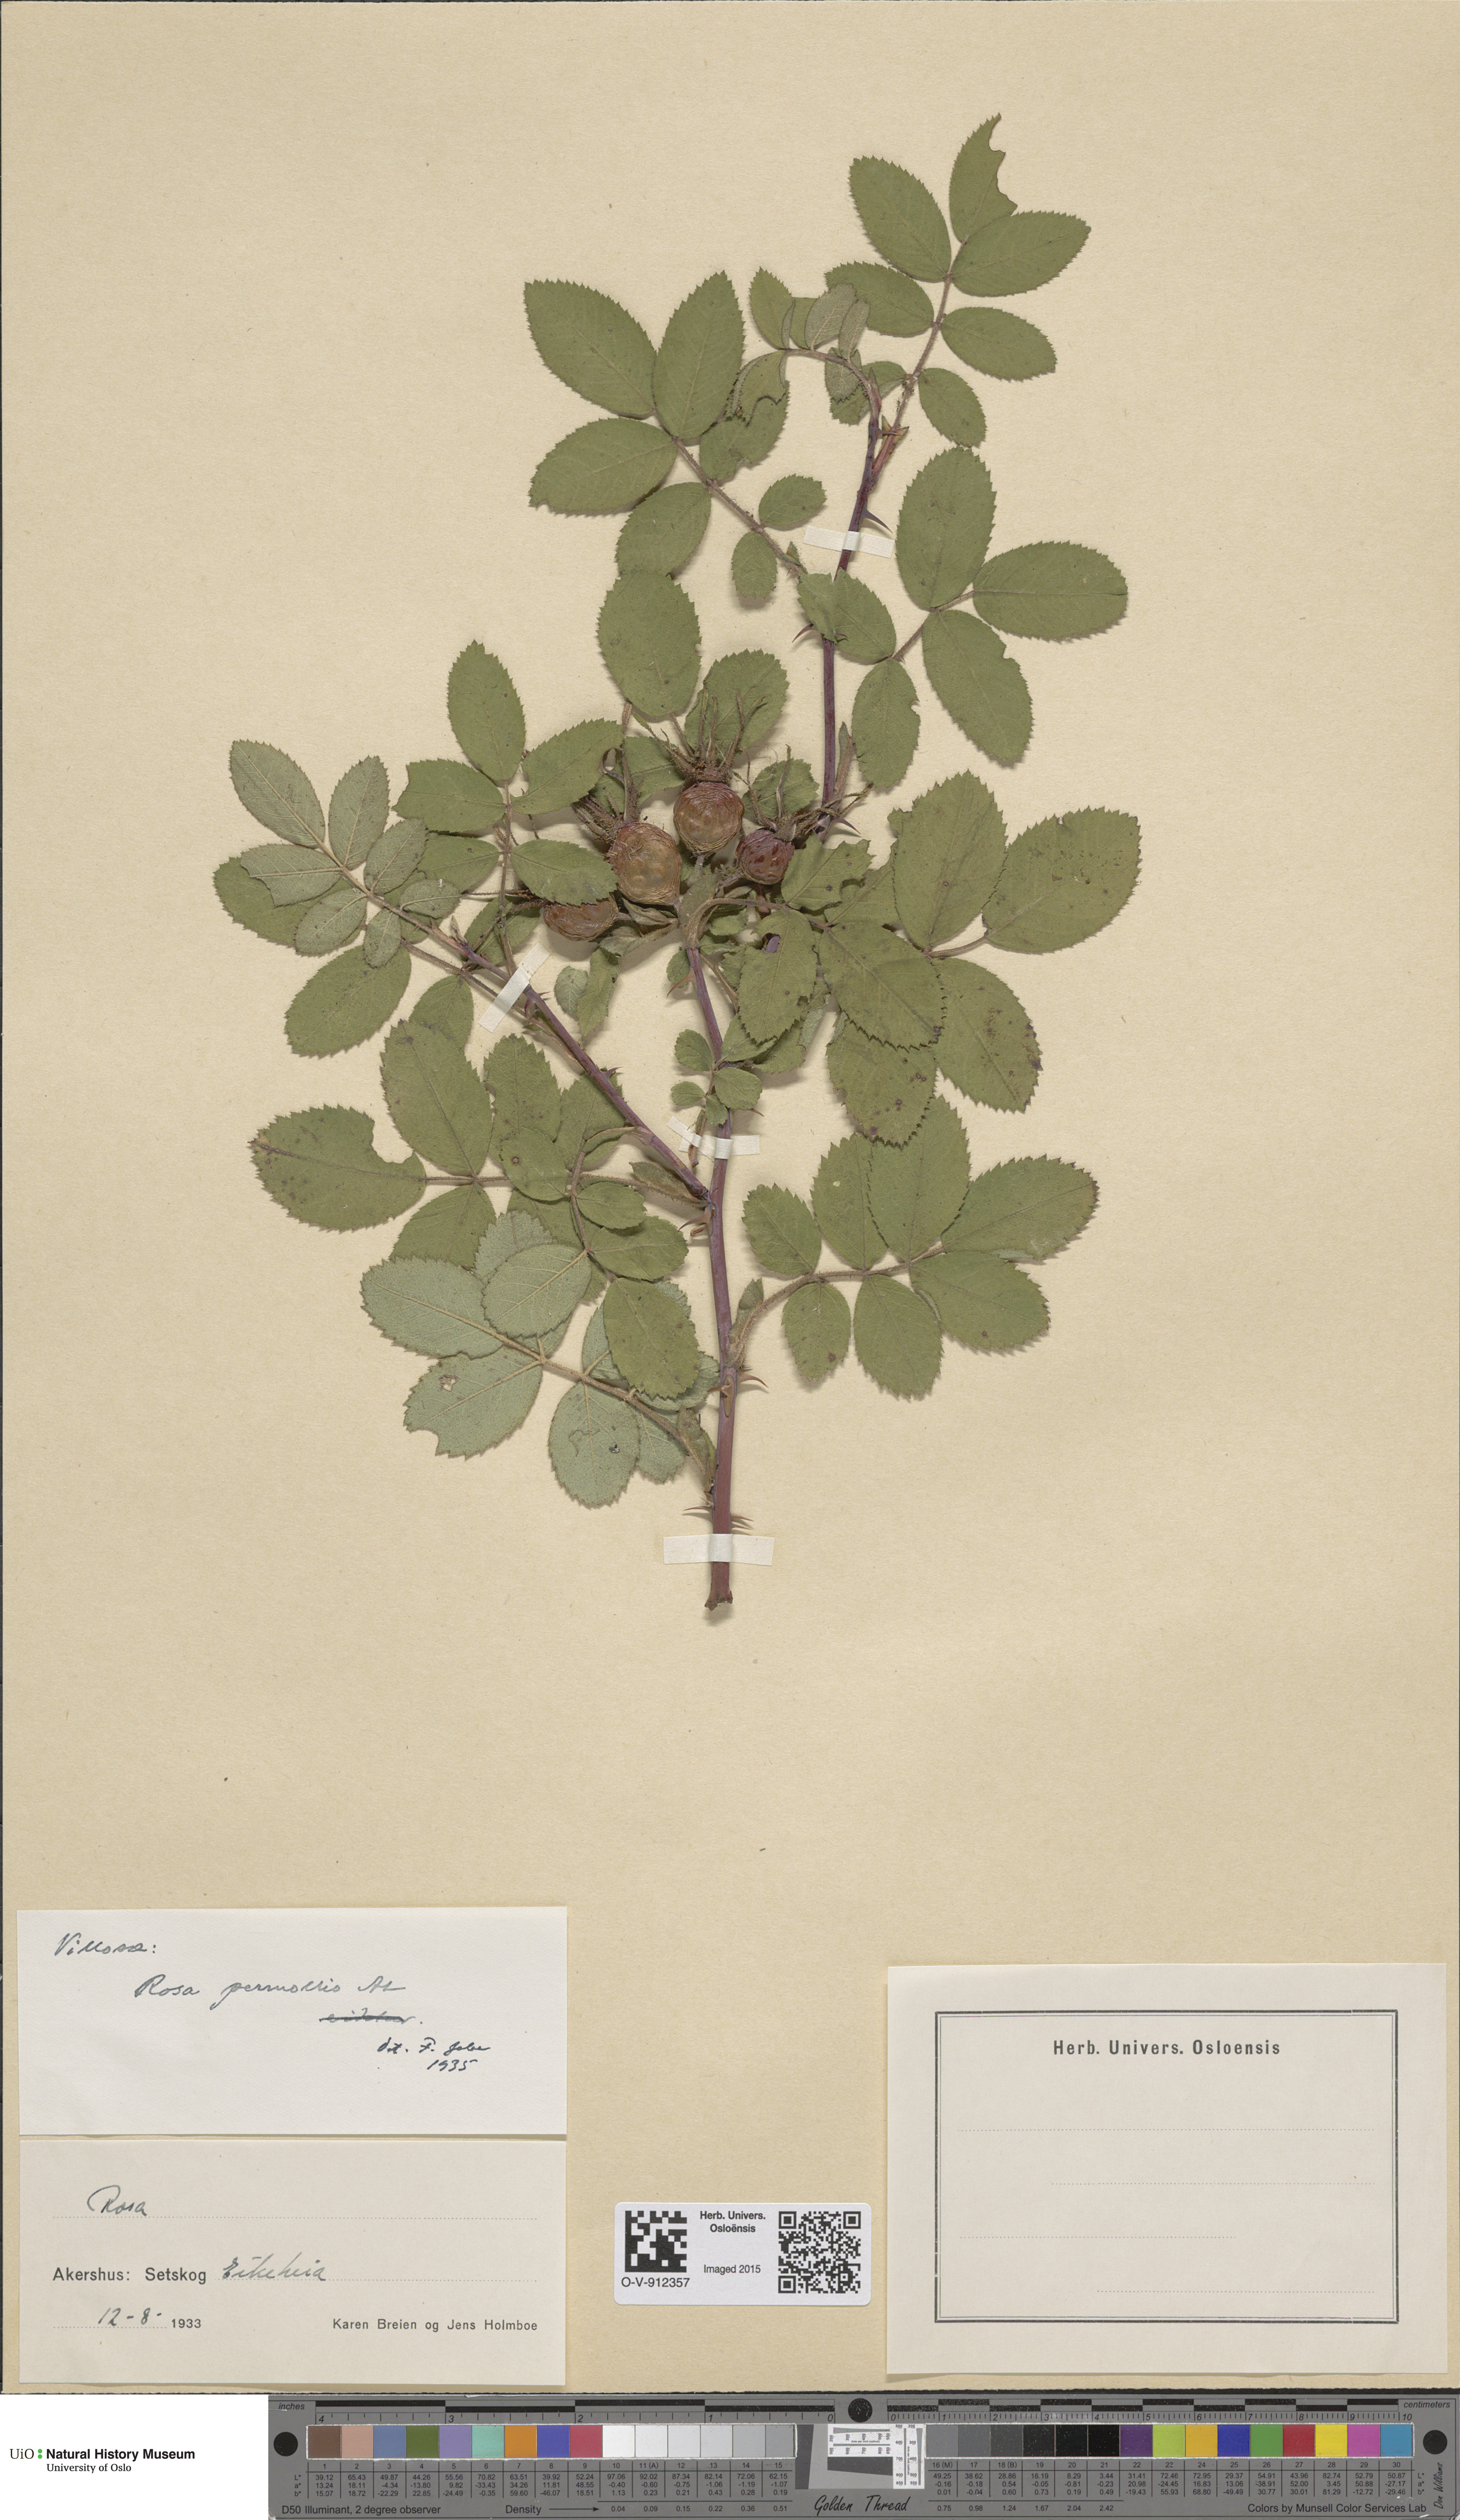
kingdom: Plantae
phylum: Tracheophyta
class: Magnoliopsida
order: Rosales
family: Rosaceae
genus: Rosa
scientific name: Rosa mollis
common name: Rose
